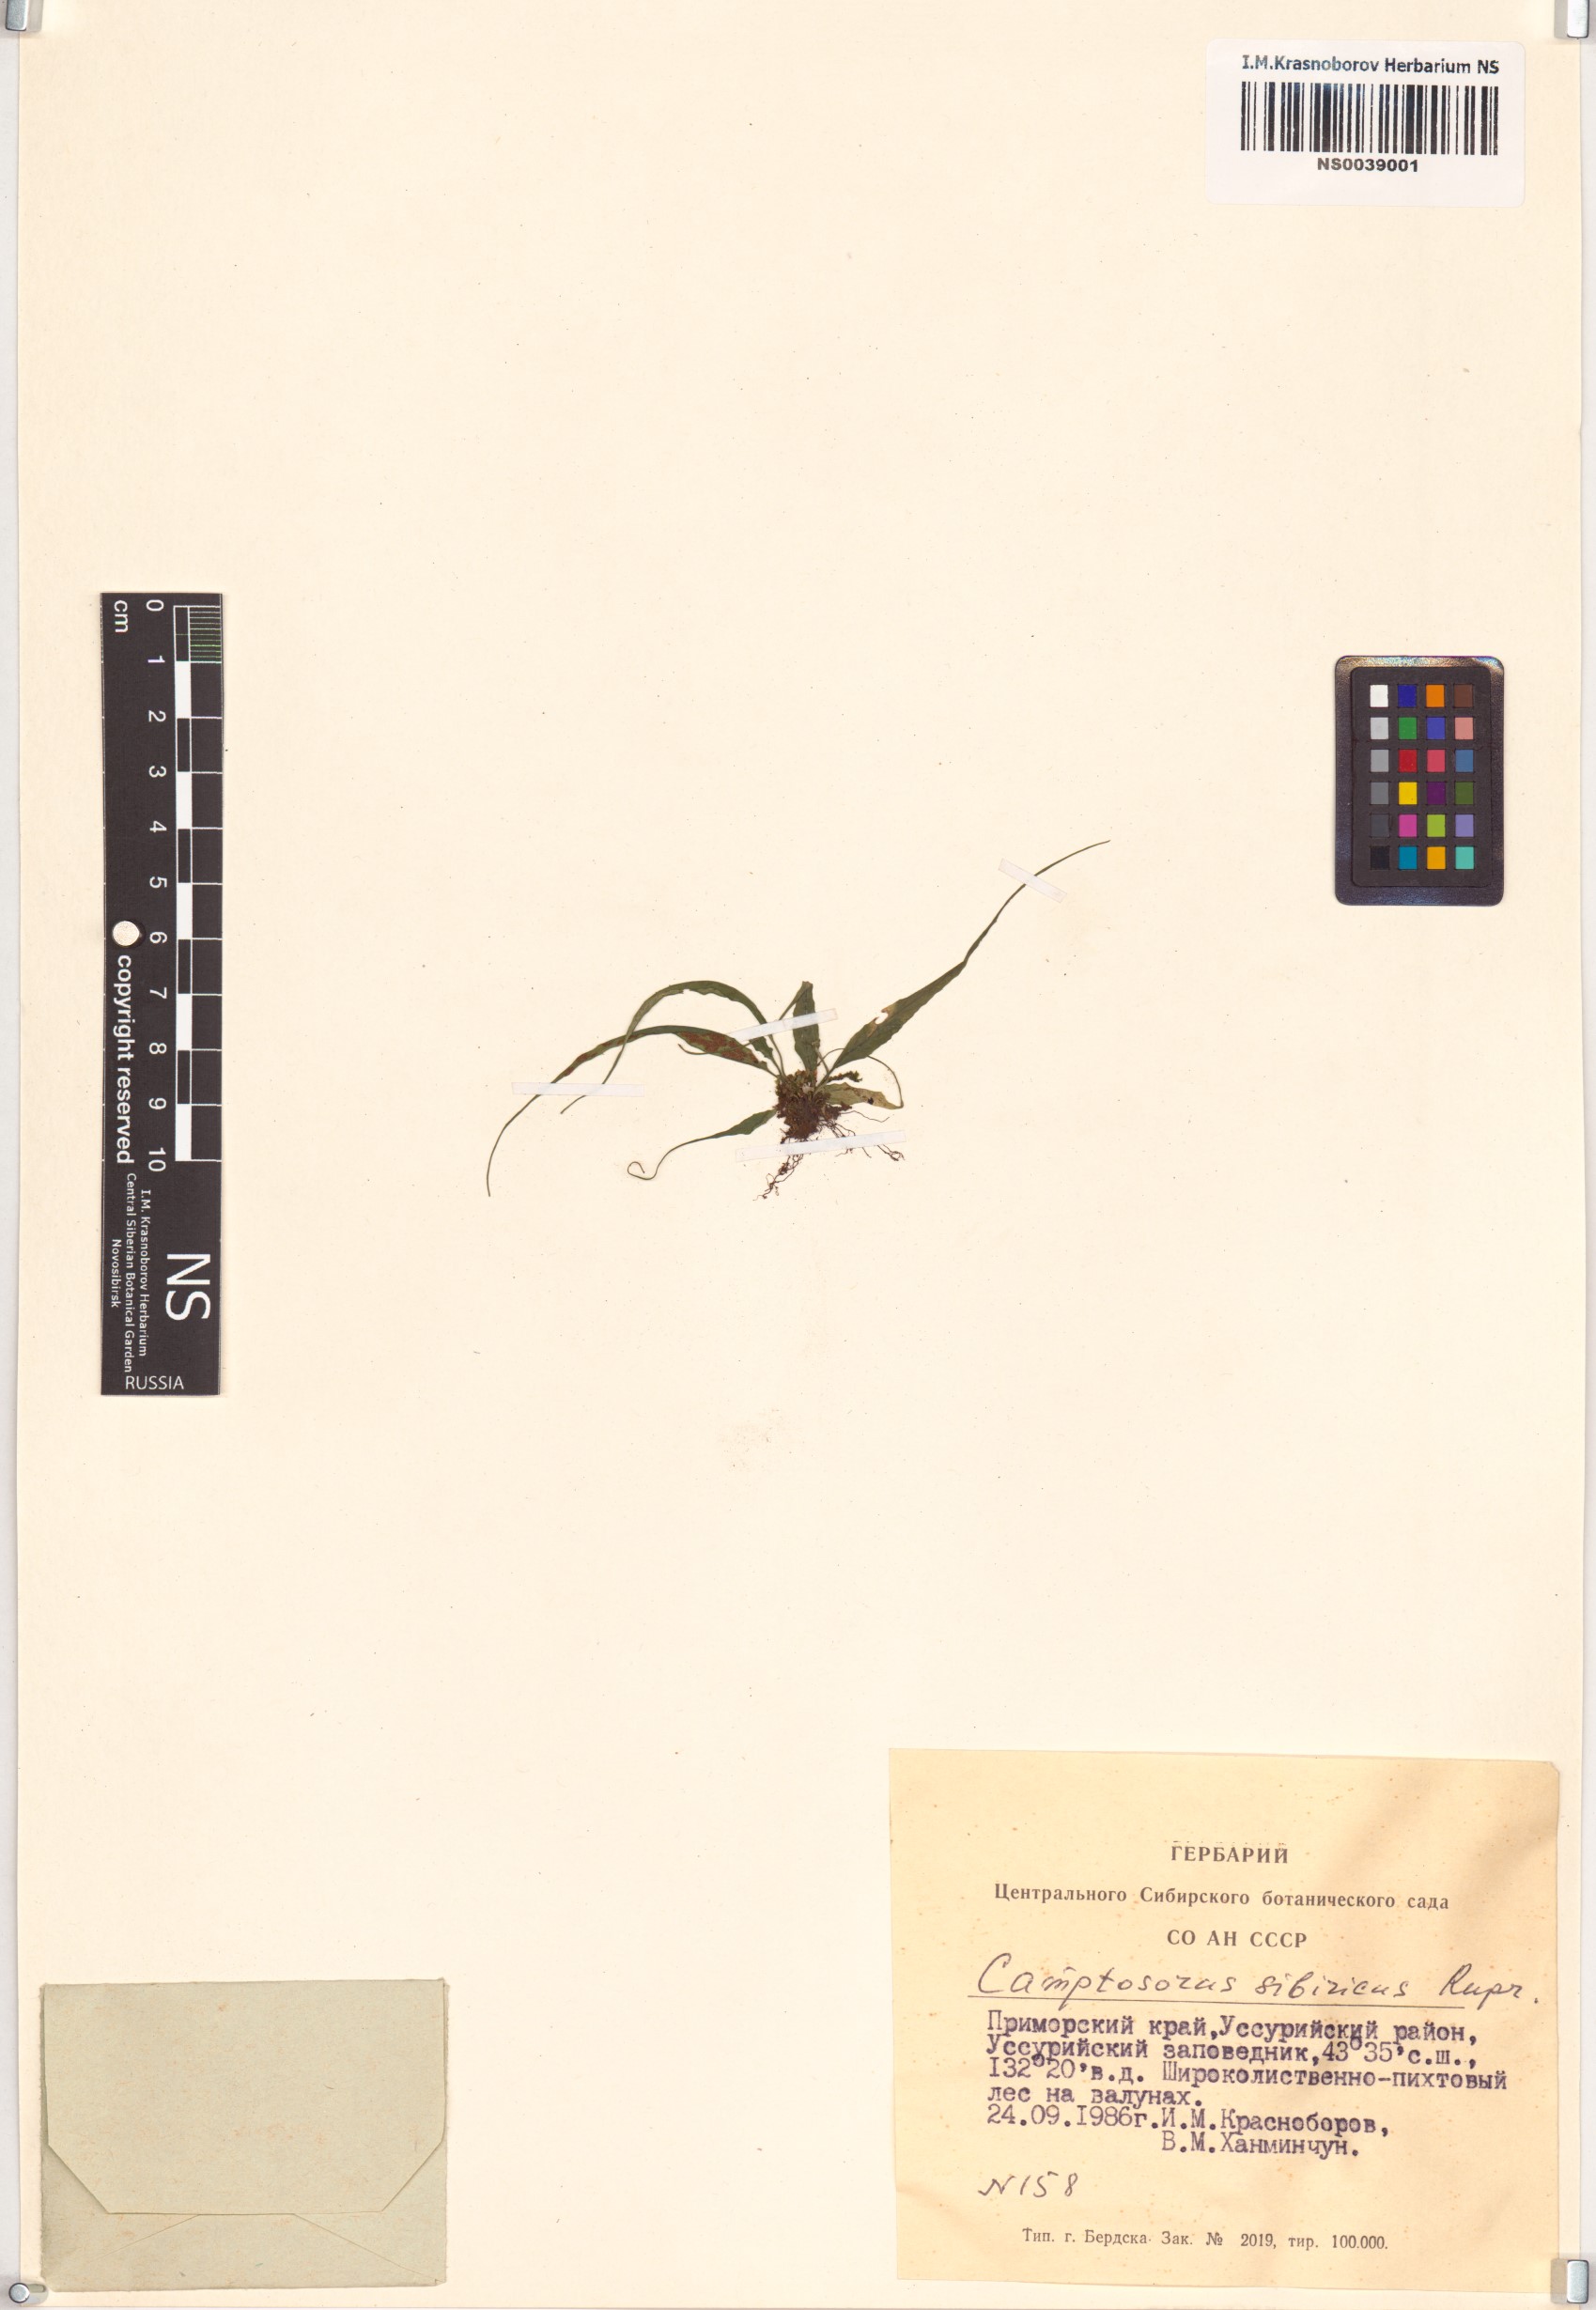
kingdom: Plantae
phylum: Tracheophyta
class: Polypodiopsida
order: Polypodiales
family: Aspleniaceae
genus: Asplenium
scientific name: Asplenium ruprechtii
